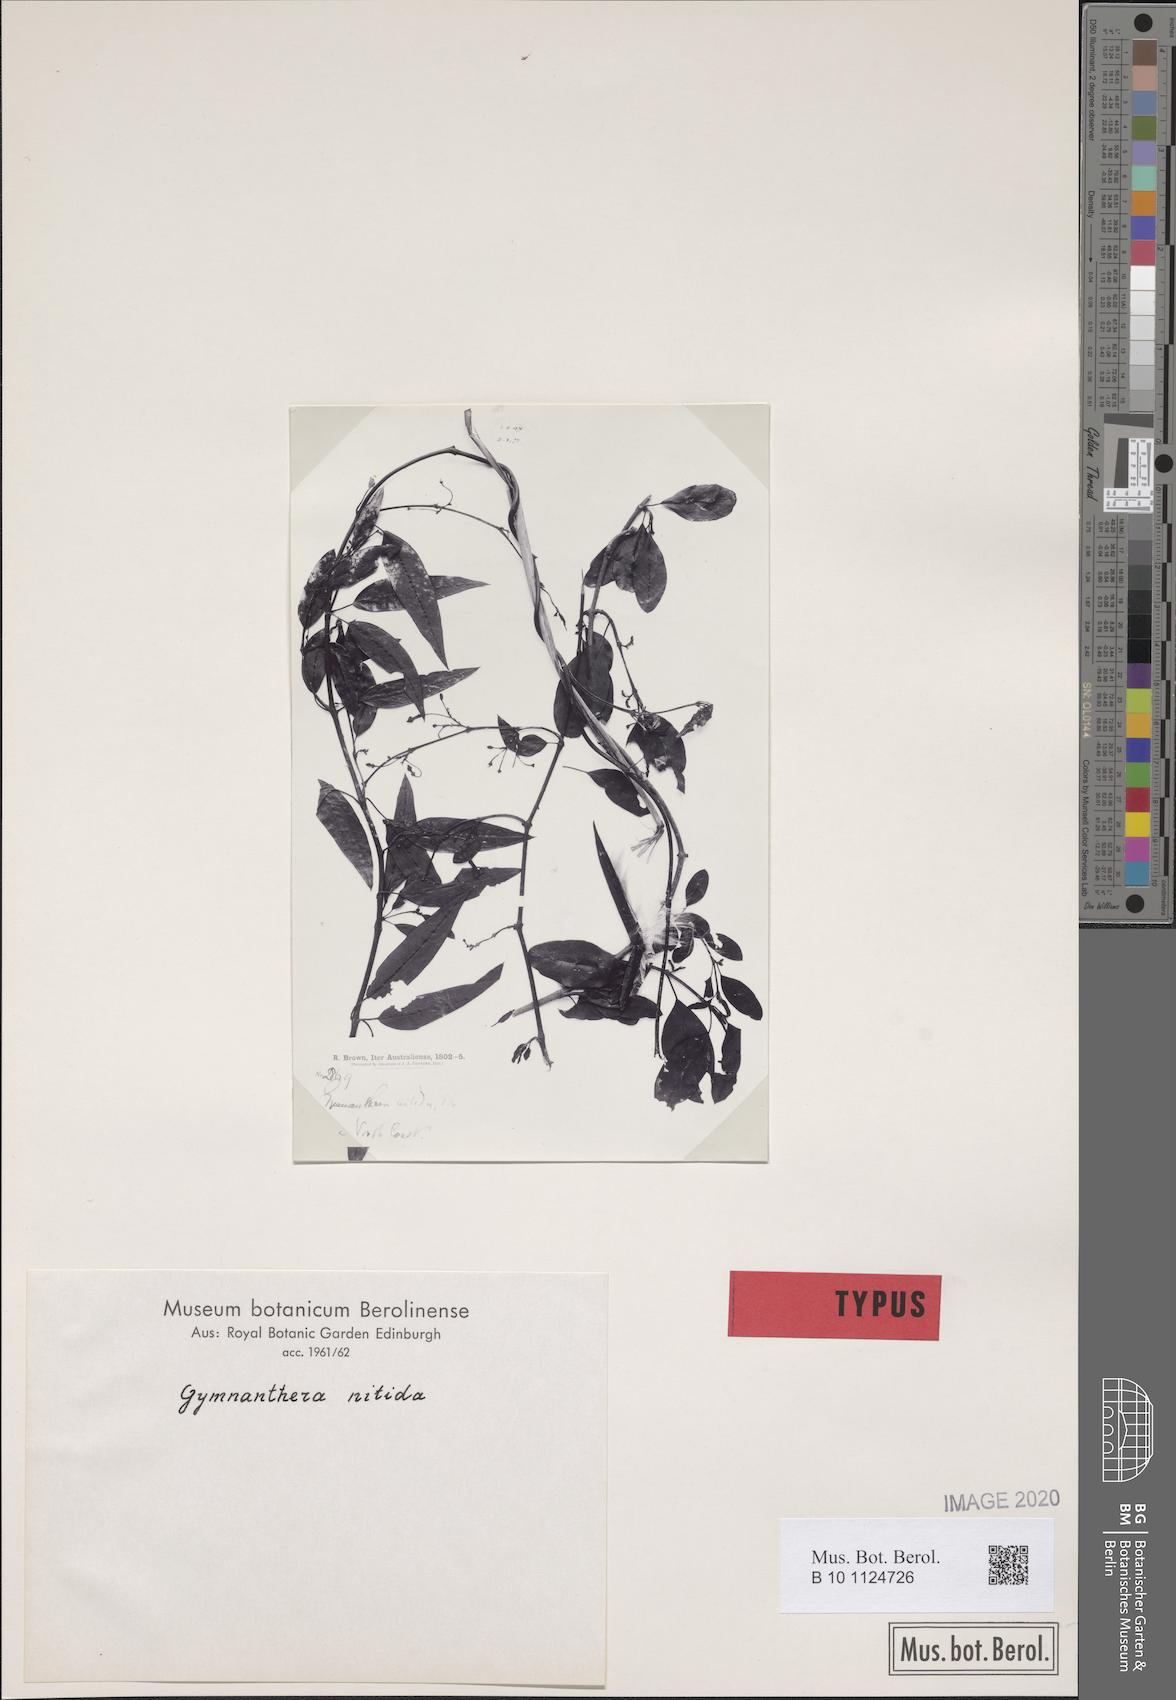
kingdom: Plantae
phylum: Tracheophyta
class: Magnoliopsida
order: Gentianales
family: Apocynaceae
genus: Gymnanthera
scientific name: Gymnanthera oblonga
